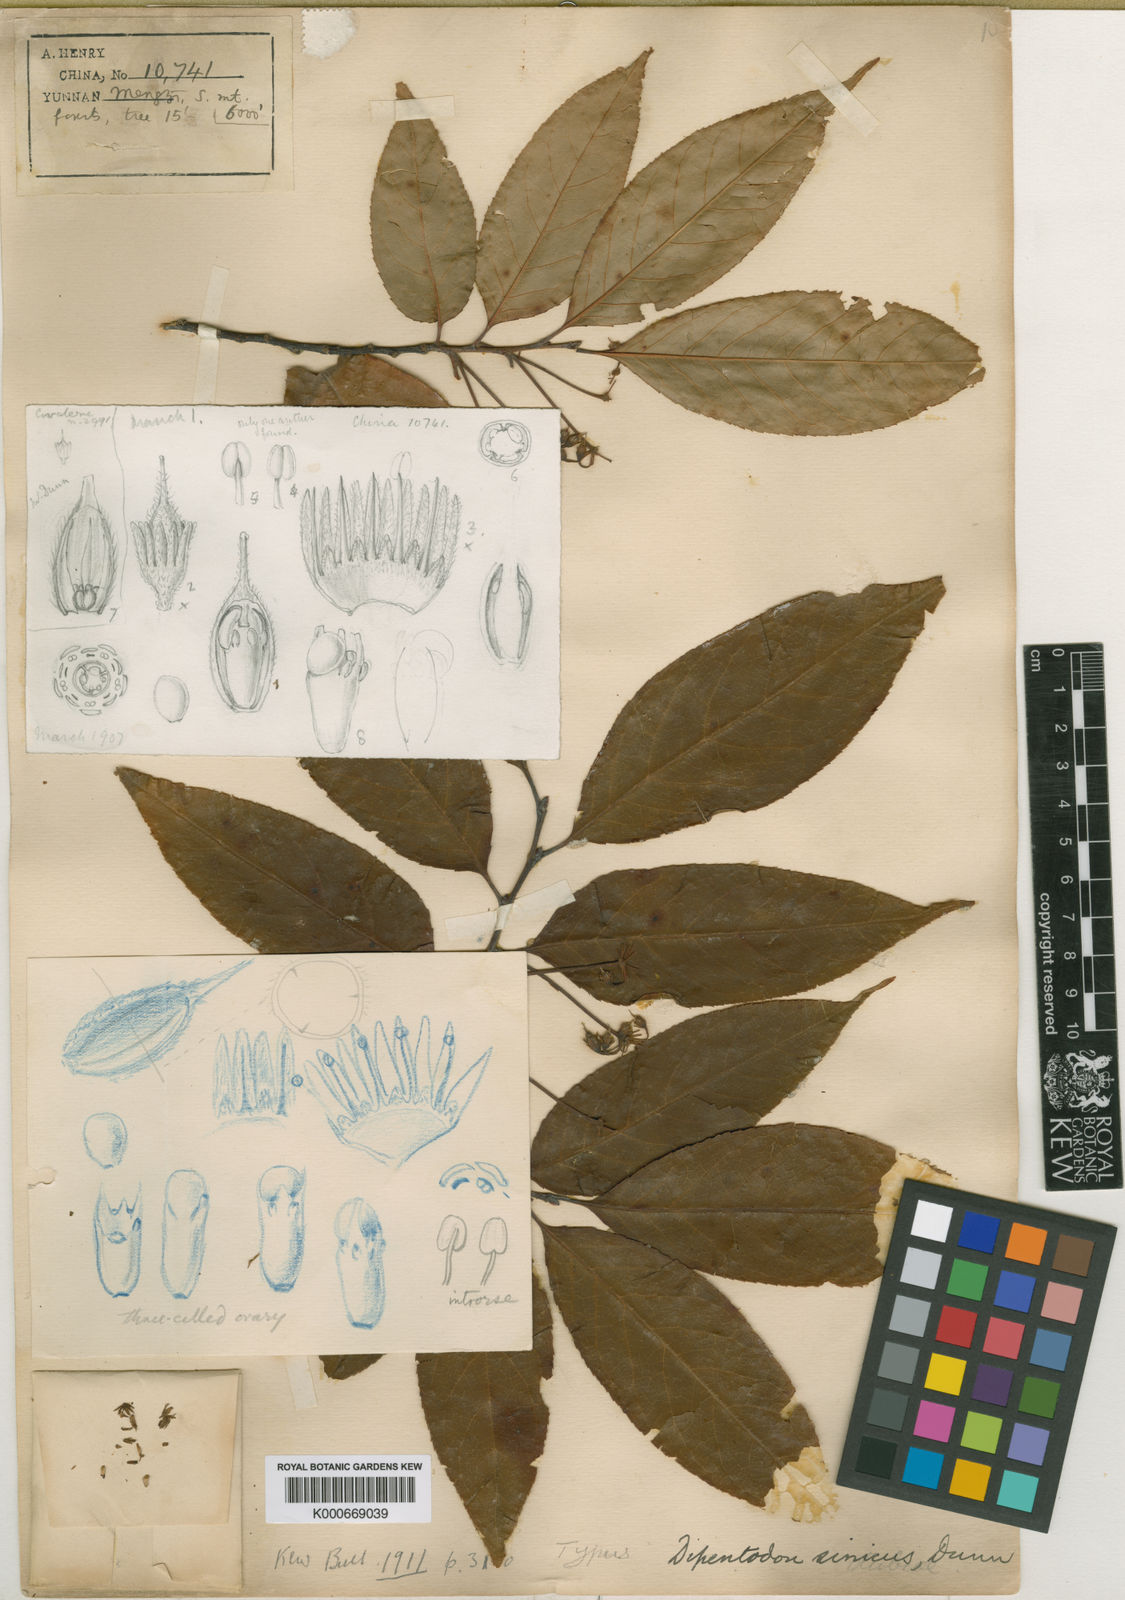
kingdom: Plantae
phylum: Tracheophyta
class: Magnoliopsida
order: Huerteales
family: Dipentodontaceae
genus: Dipentodon
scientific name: Dipentodon sinicus
